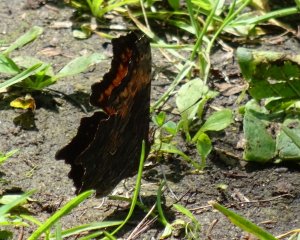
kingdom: Animalia
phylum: Arthropoda
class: Insecta
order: Lepidoptera
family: Nymphalidae
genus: Polygonia
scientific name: Polygonia progne
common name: Gray Comma
